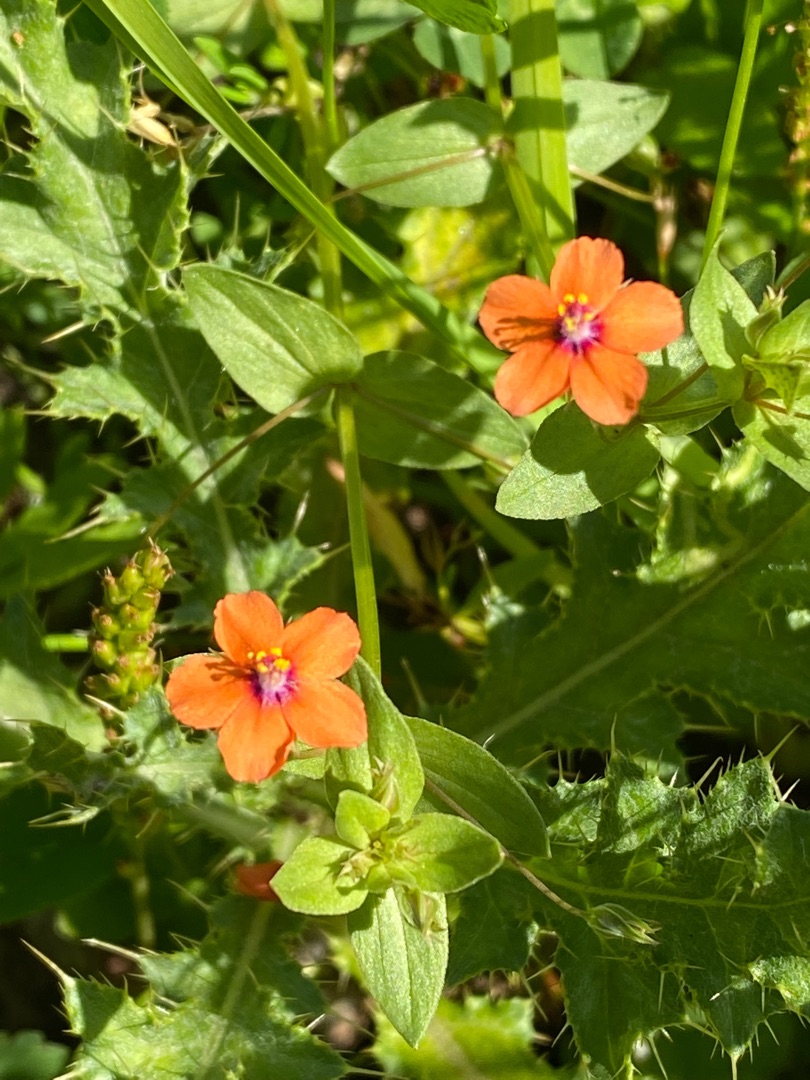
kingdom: Plantae
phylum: Tracheophyta
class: Magnoliopsida
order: Ericales
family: Primulaceae
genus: Lysimachia
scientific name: Lysimachia arvensis
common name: Rød arve
